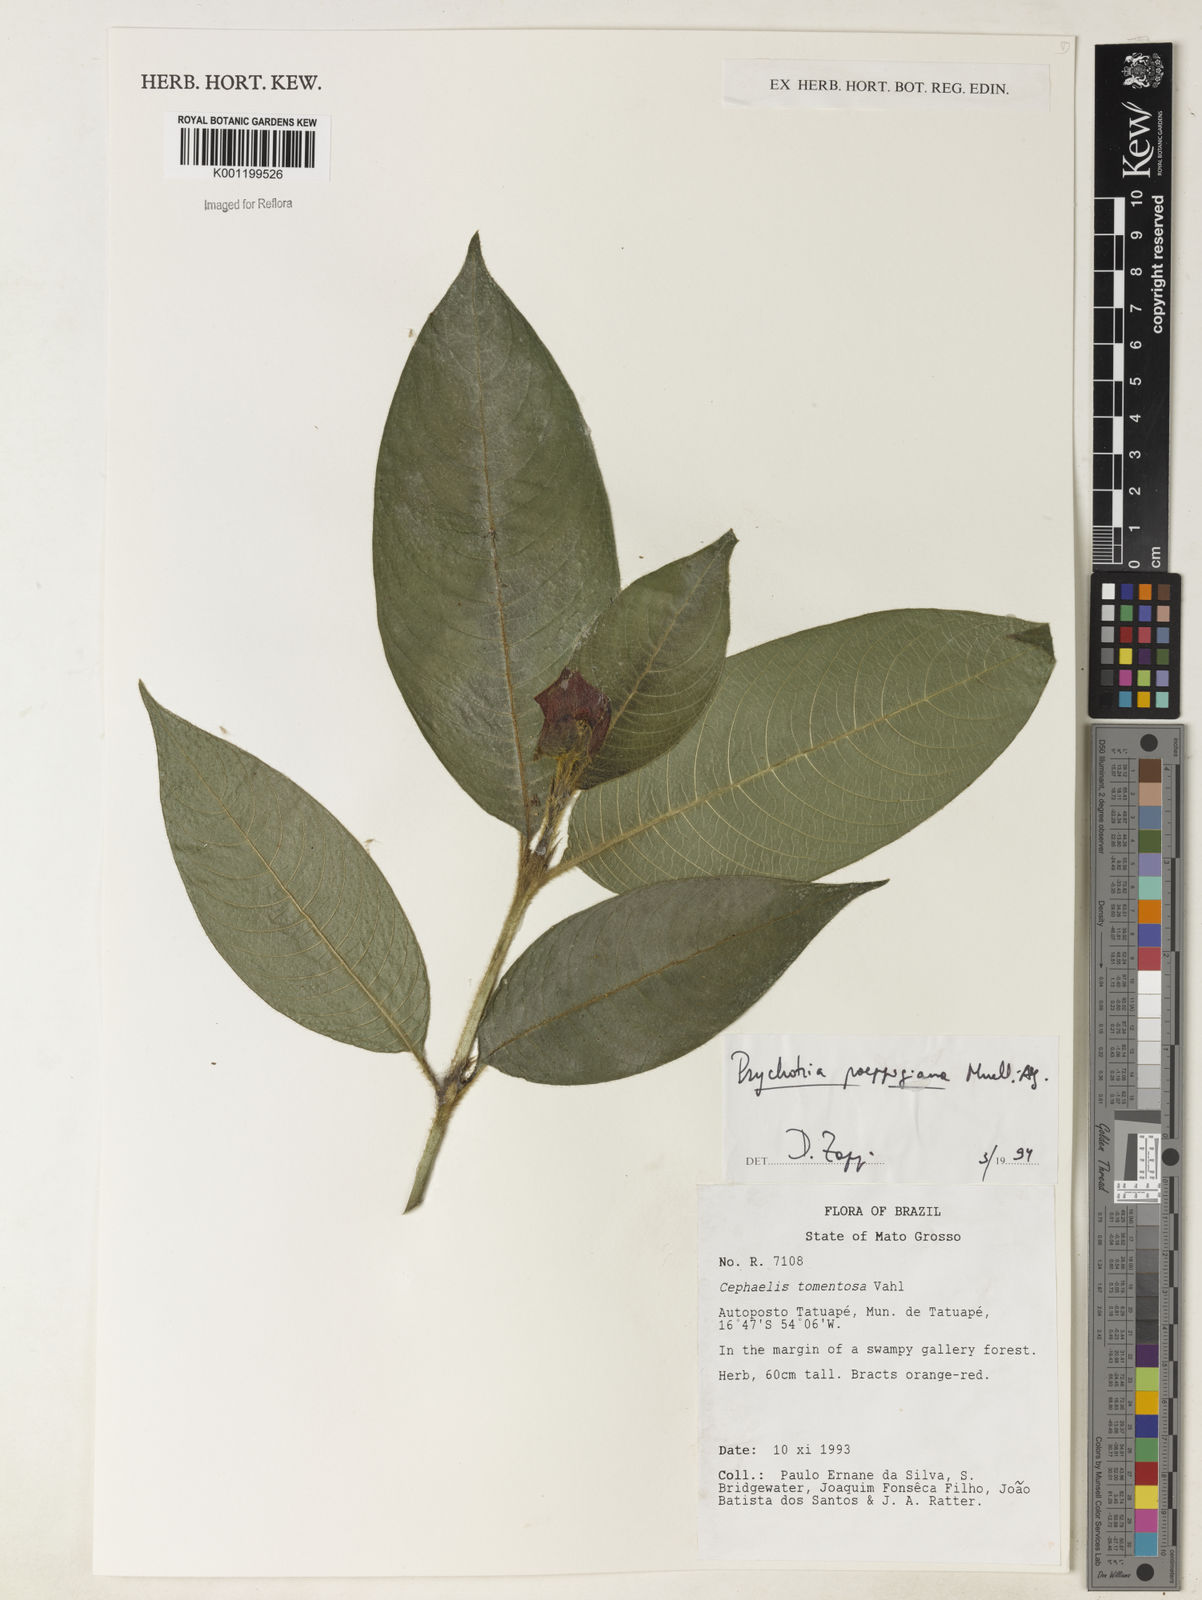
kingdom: Plantae
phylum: Tracheophyta
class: Magnoliopsida
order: Gentianales
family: Rubiaceae
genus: Psychotria
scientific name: Psychotria
